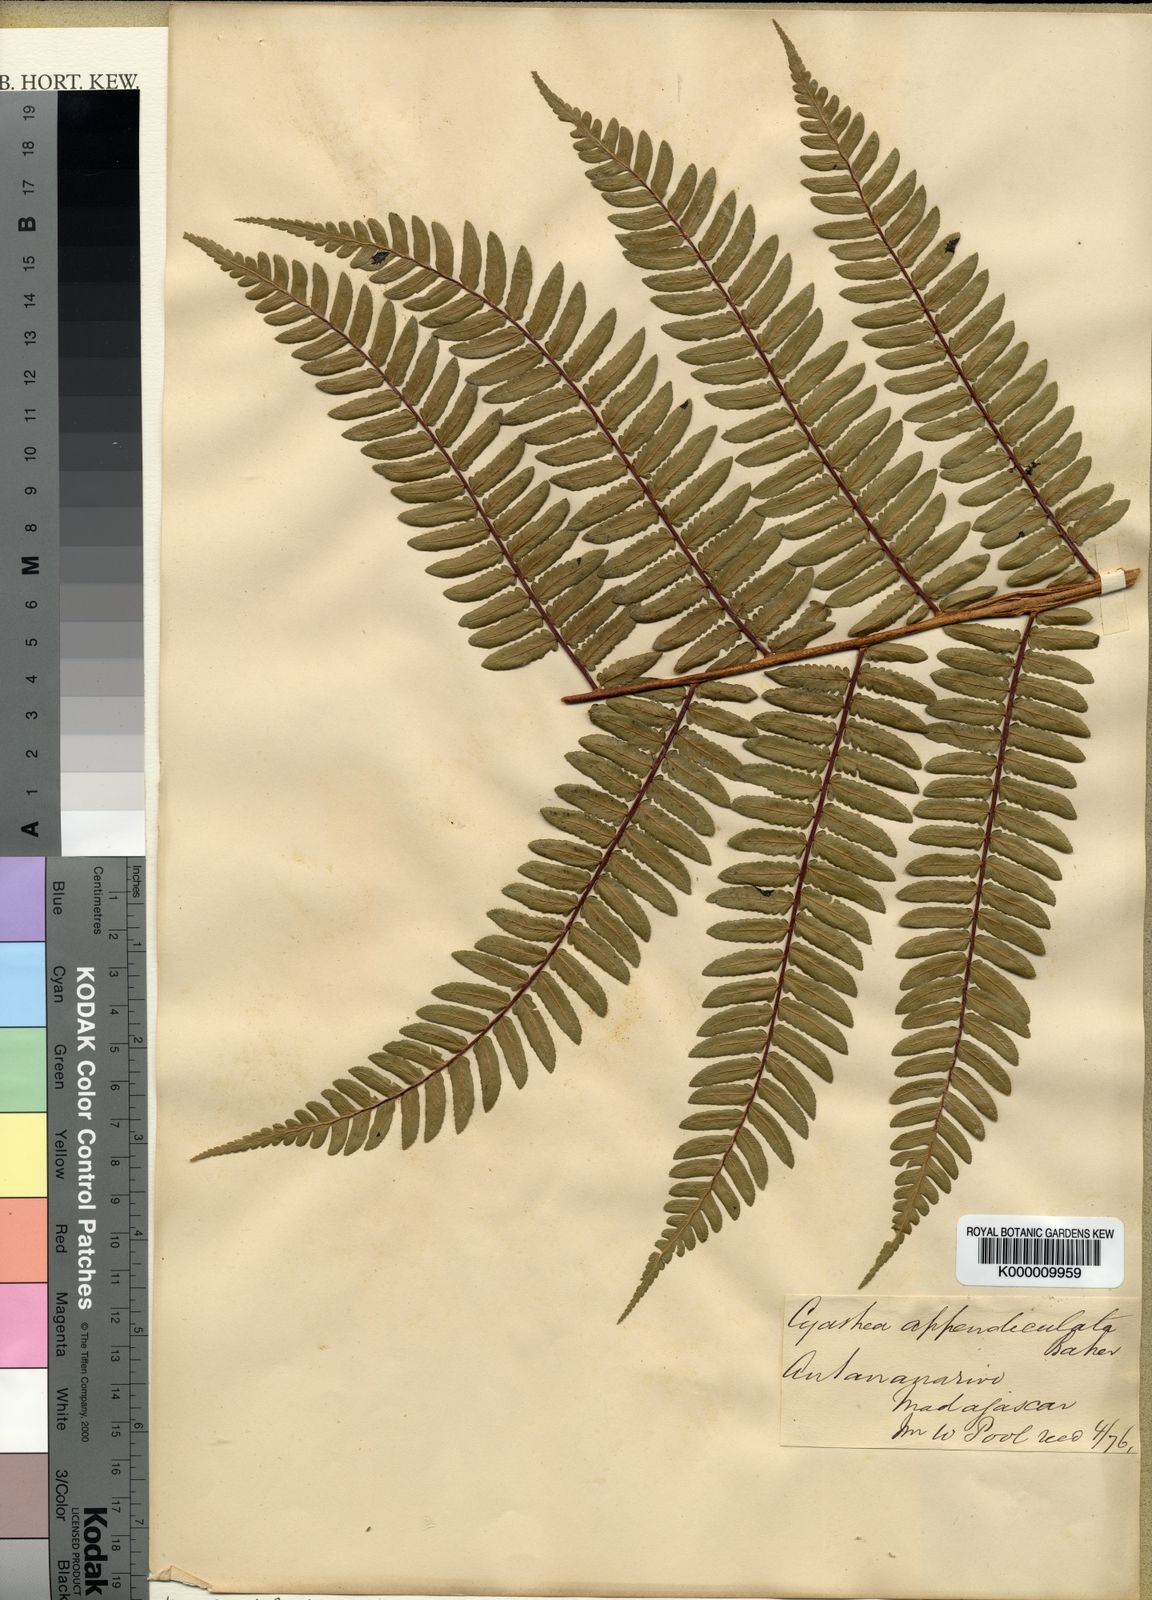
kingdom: Plantae
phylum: Tracheophyta
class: Polypodiopsida
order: Cyatheales
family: Cyatheaceae
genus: Alsophila
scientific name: Alsophila appendiculata
